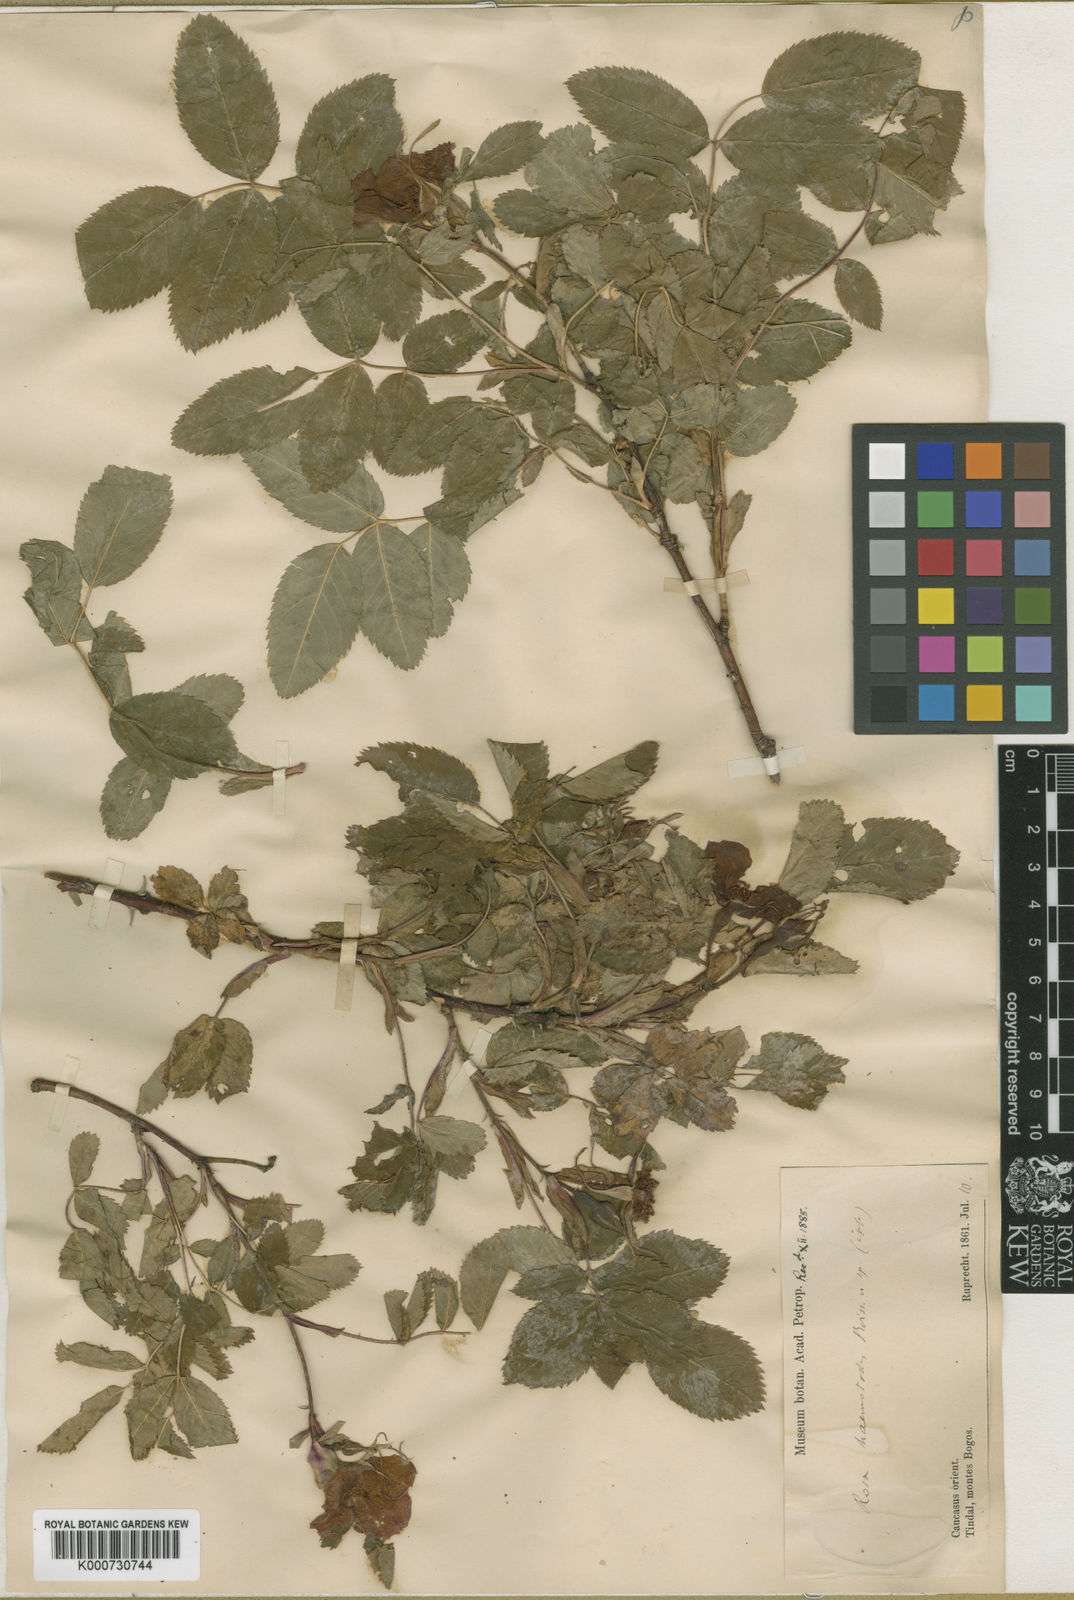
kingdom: Plantae
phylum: Tracheophyta
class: Magnoliopsida
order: Rosales
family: Rosaceae
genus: Rosa
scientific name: Rosa oxyodon
